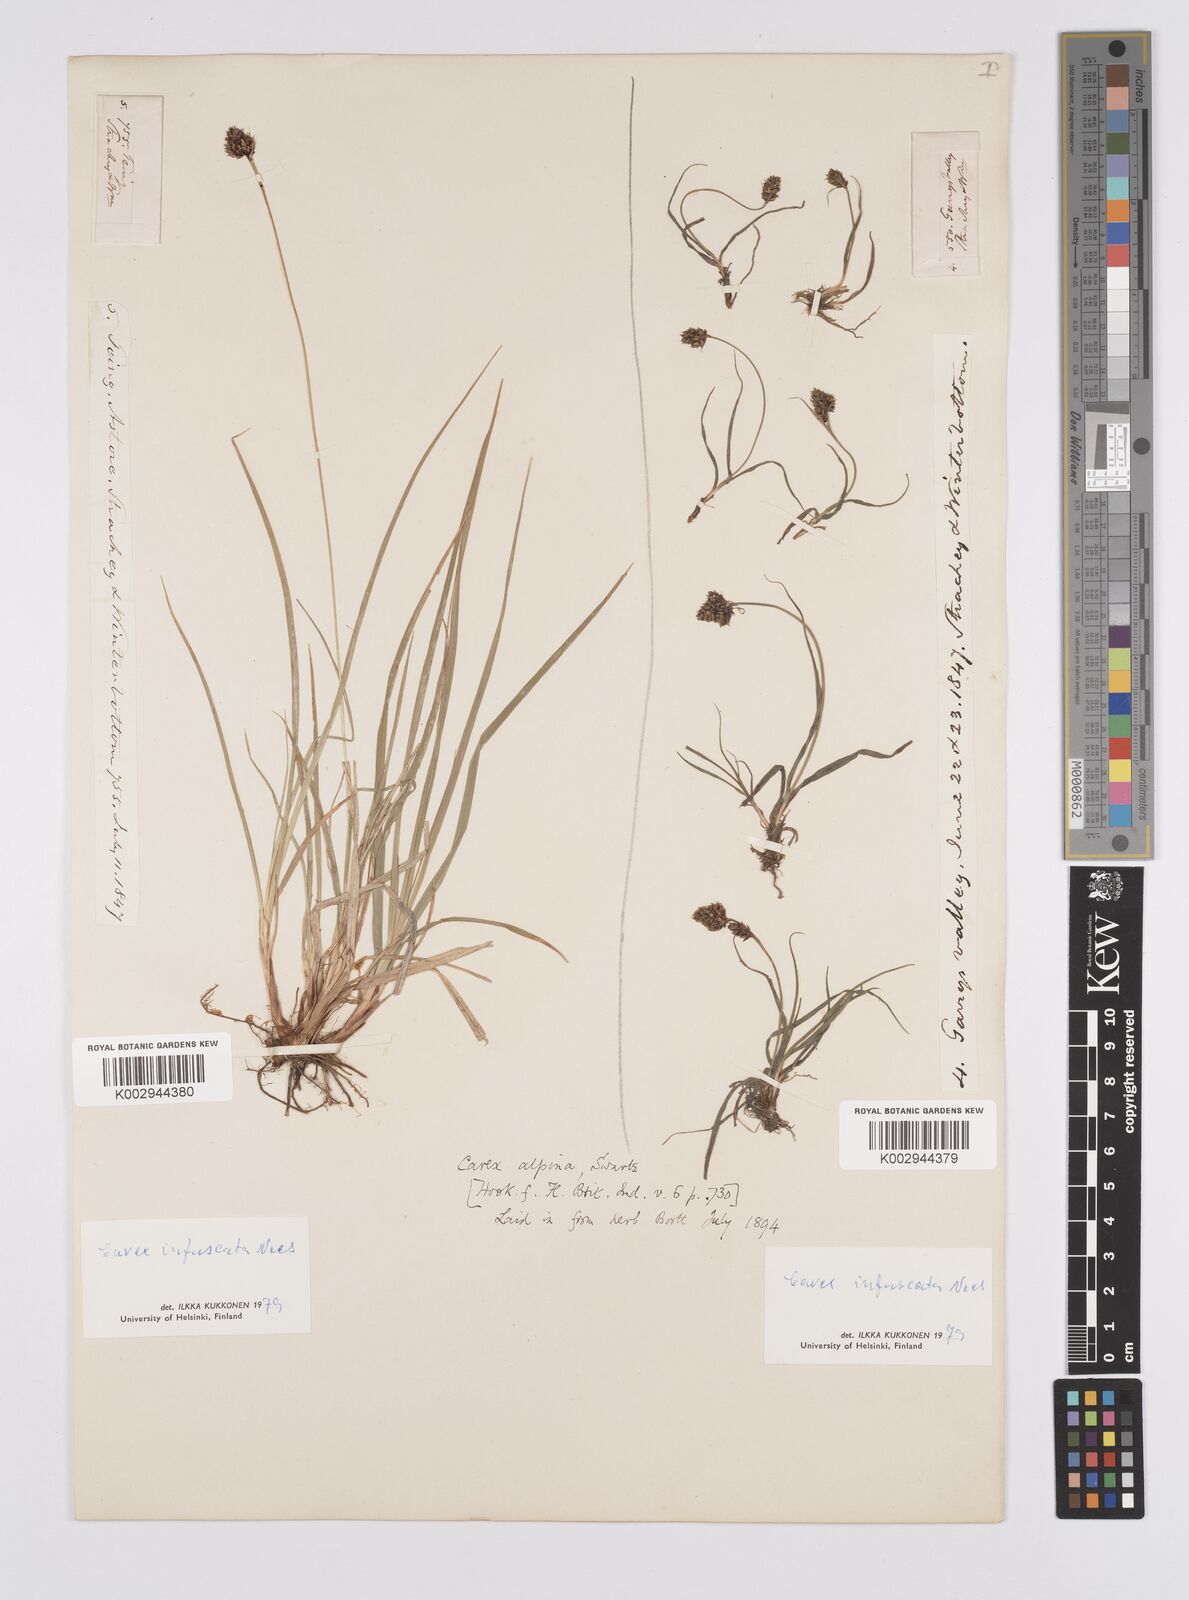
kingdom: Plantae
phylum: Tracheophyta
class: Liliopsida
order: Poales
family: Cyperaceae
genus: Carex
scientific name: Carex norvegica
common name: Close-headed alpine-sedge
